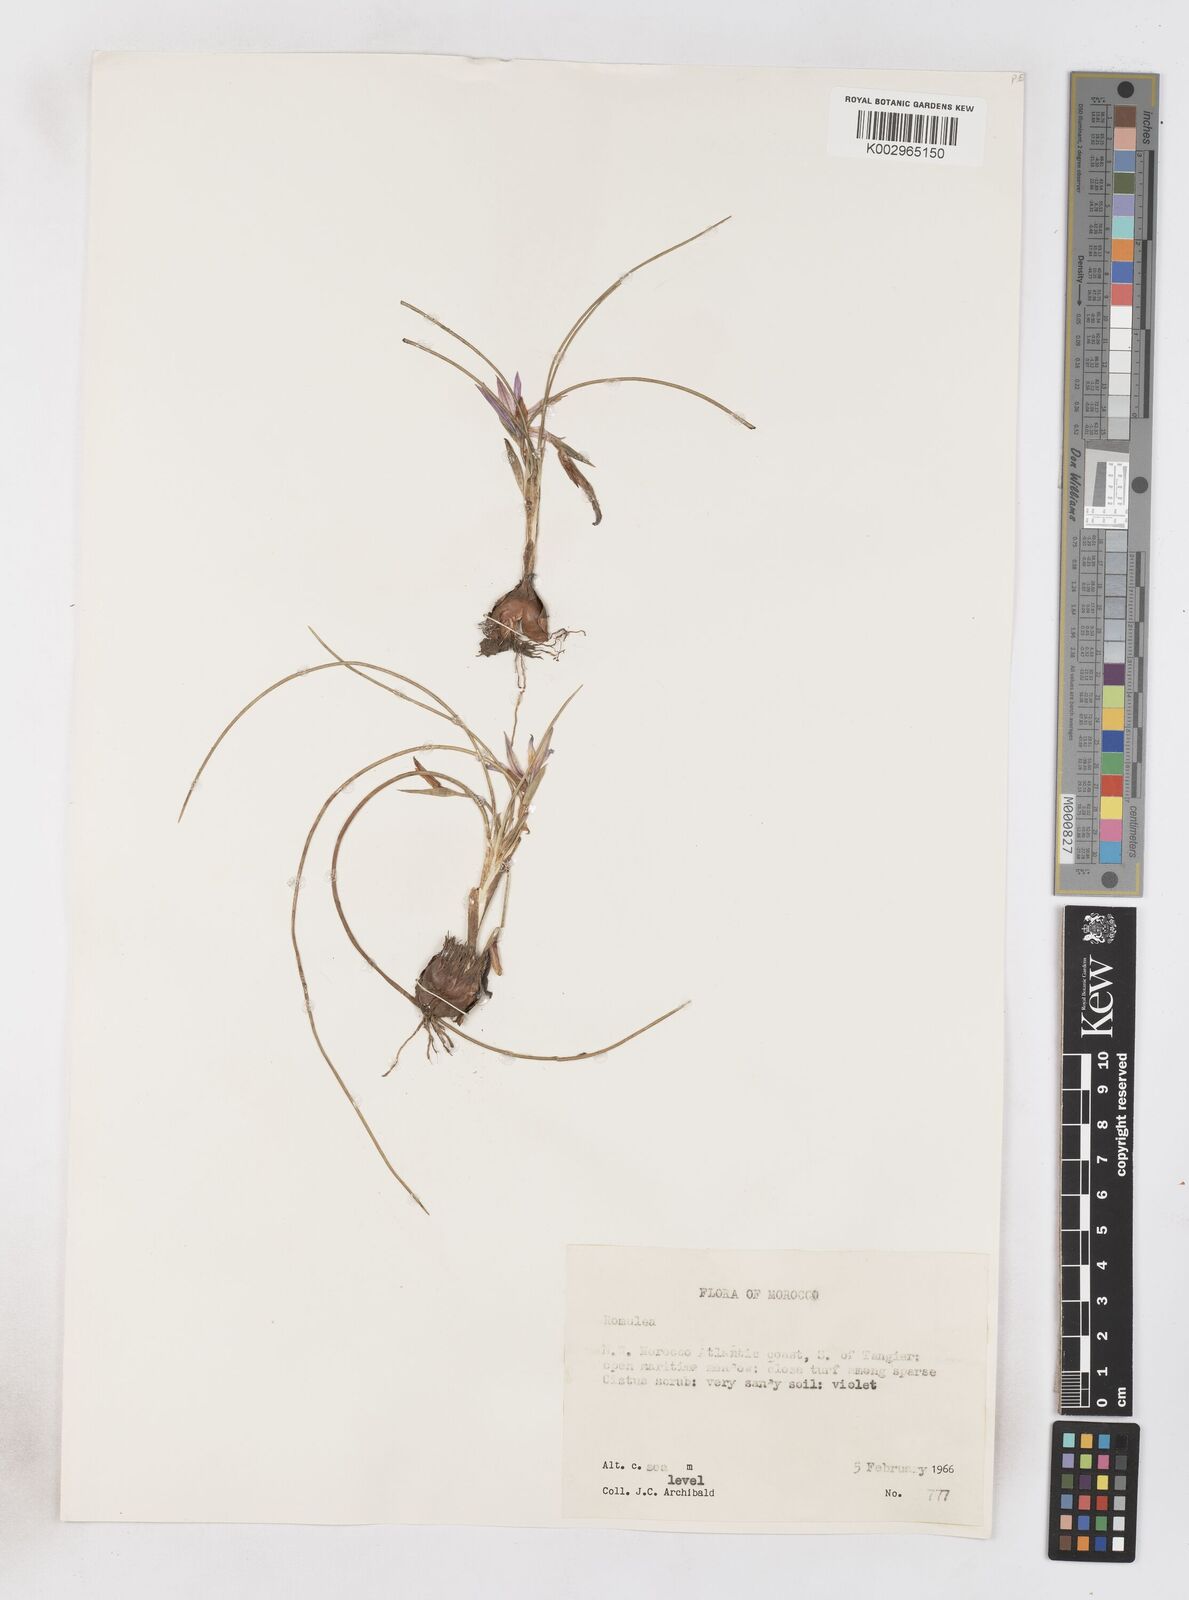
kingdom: Plantae
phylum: Tracheophyta
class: Liliopsida
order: Asparagales
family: Iridaceae
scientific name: Iridaceae
